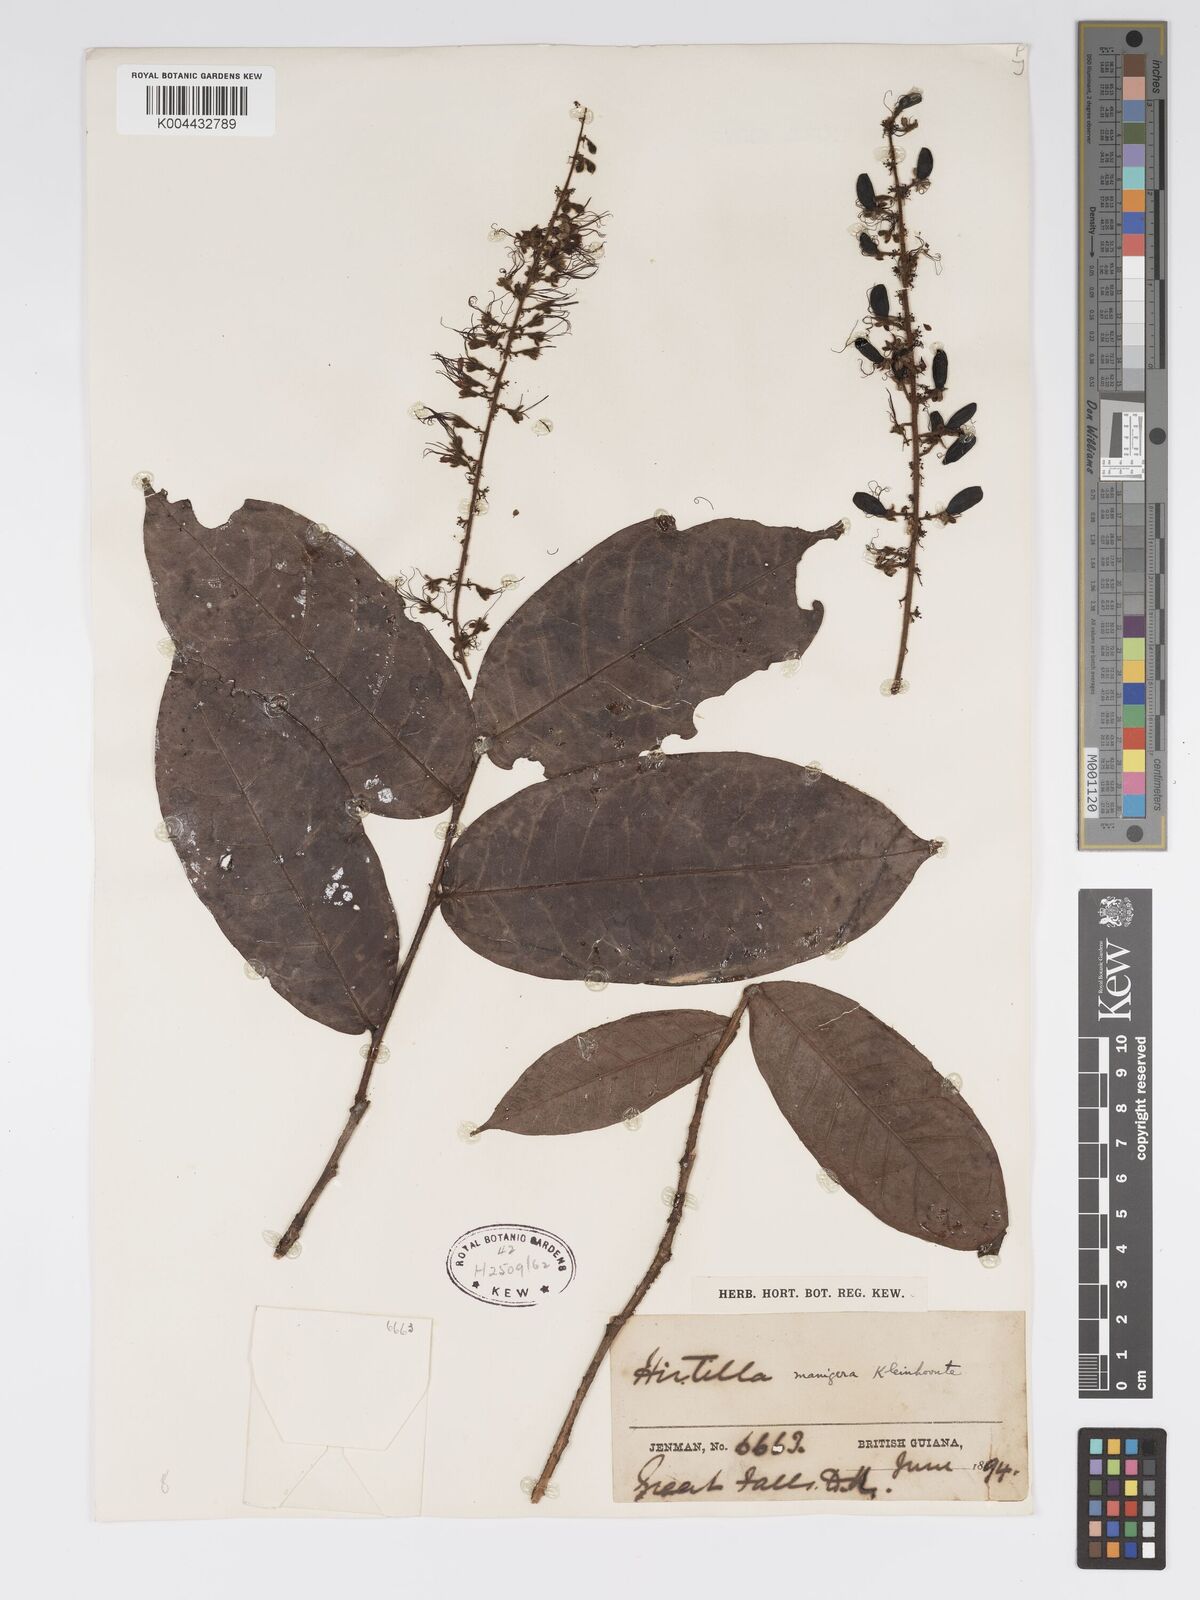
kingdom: Plantae
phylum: Tracheophyta
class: Magnoliopsida
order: Malpighiales
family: Chrysobalanaceae
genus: Hirtella
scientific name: Hirtella silicea
